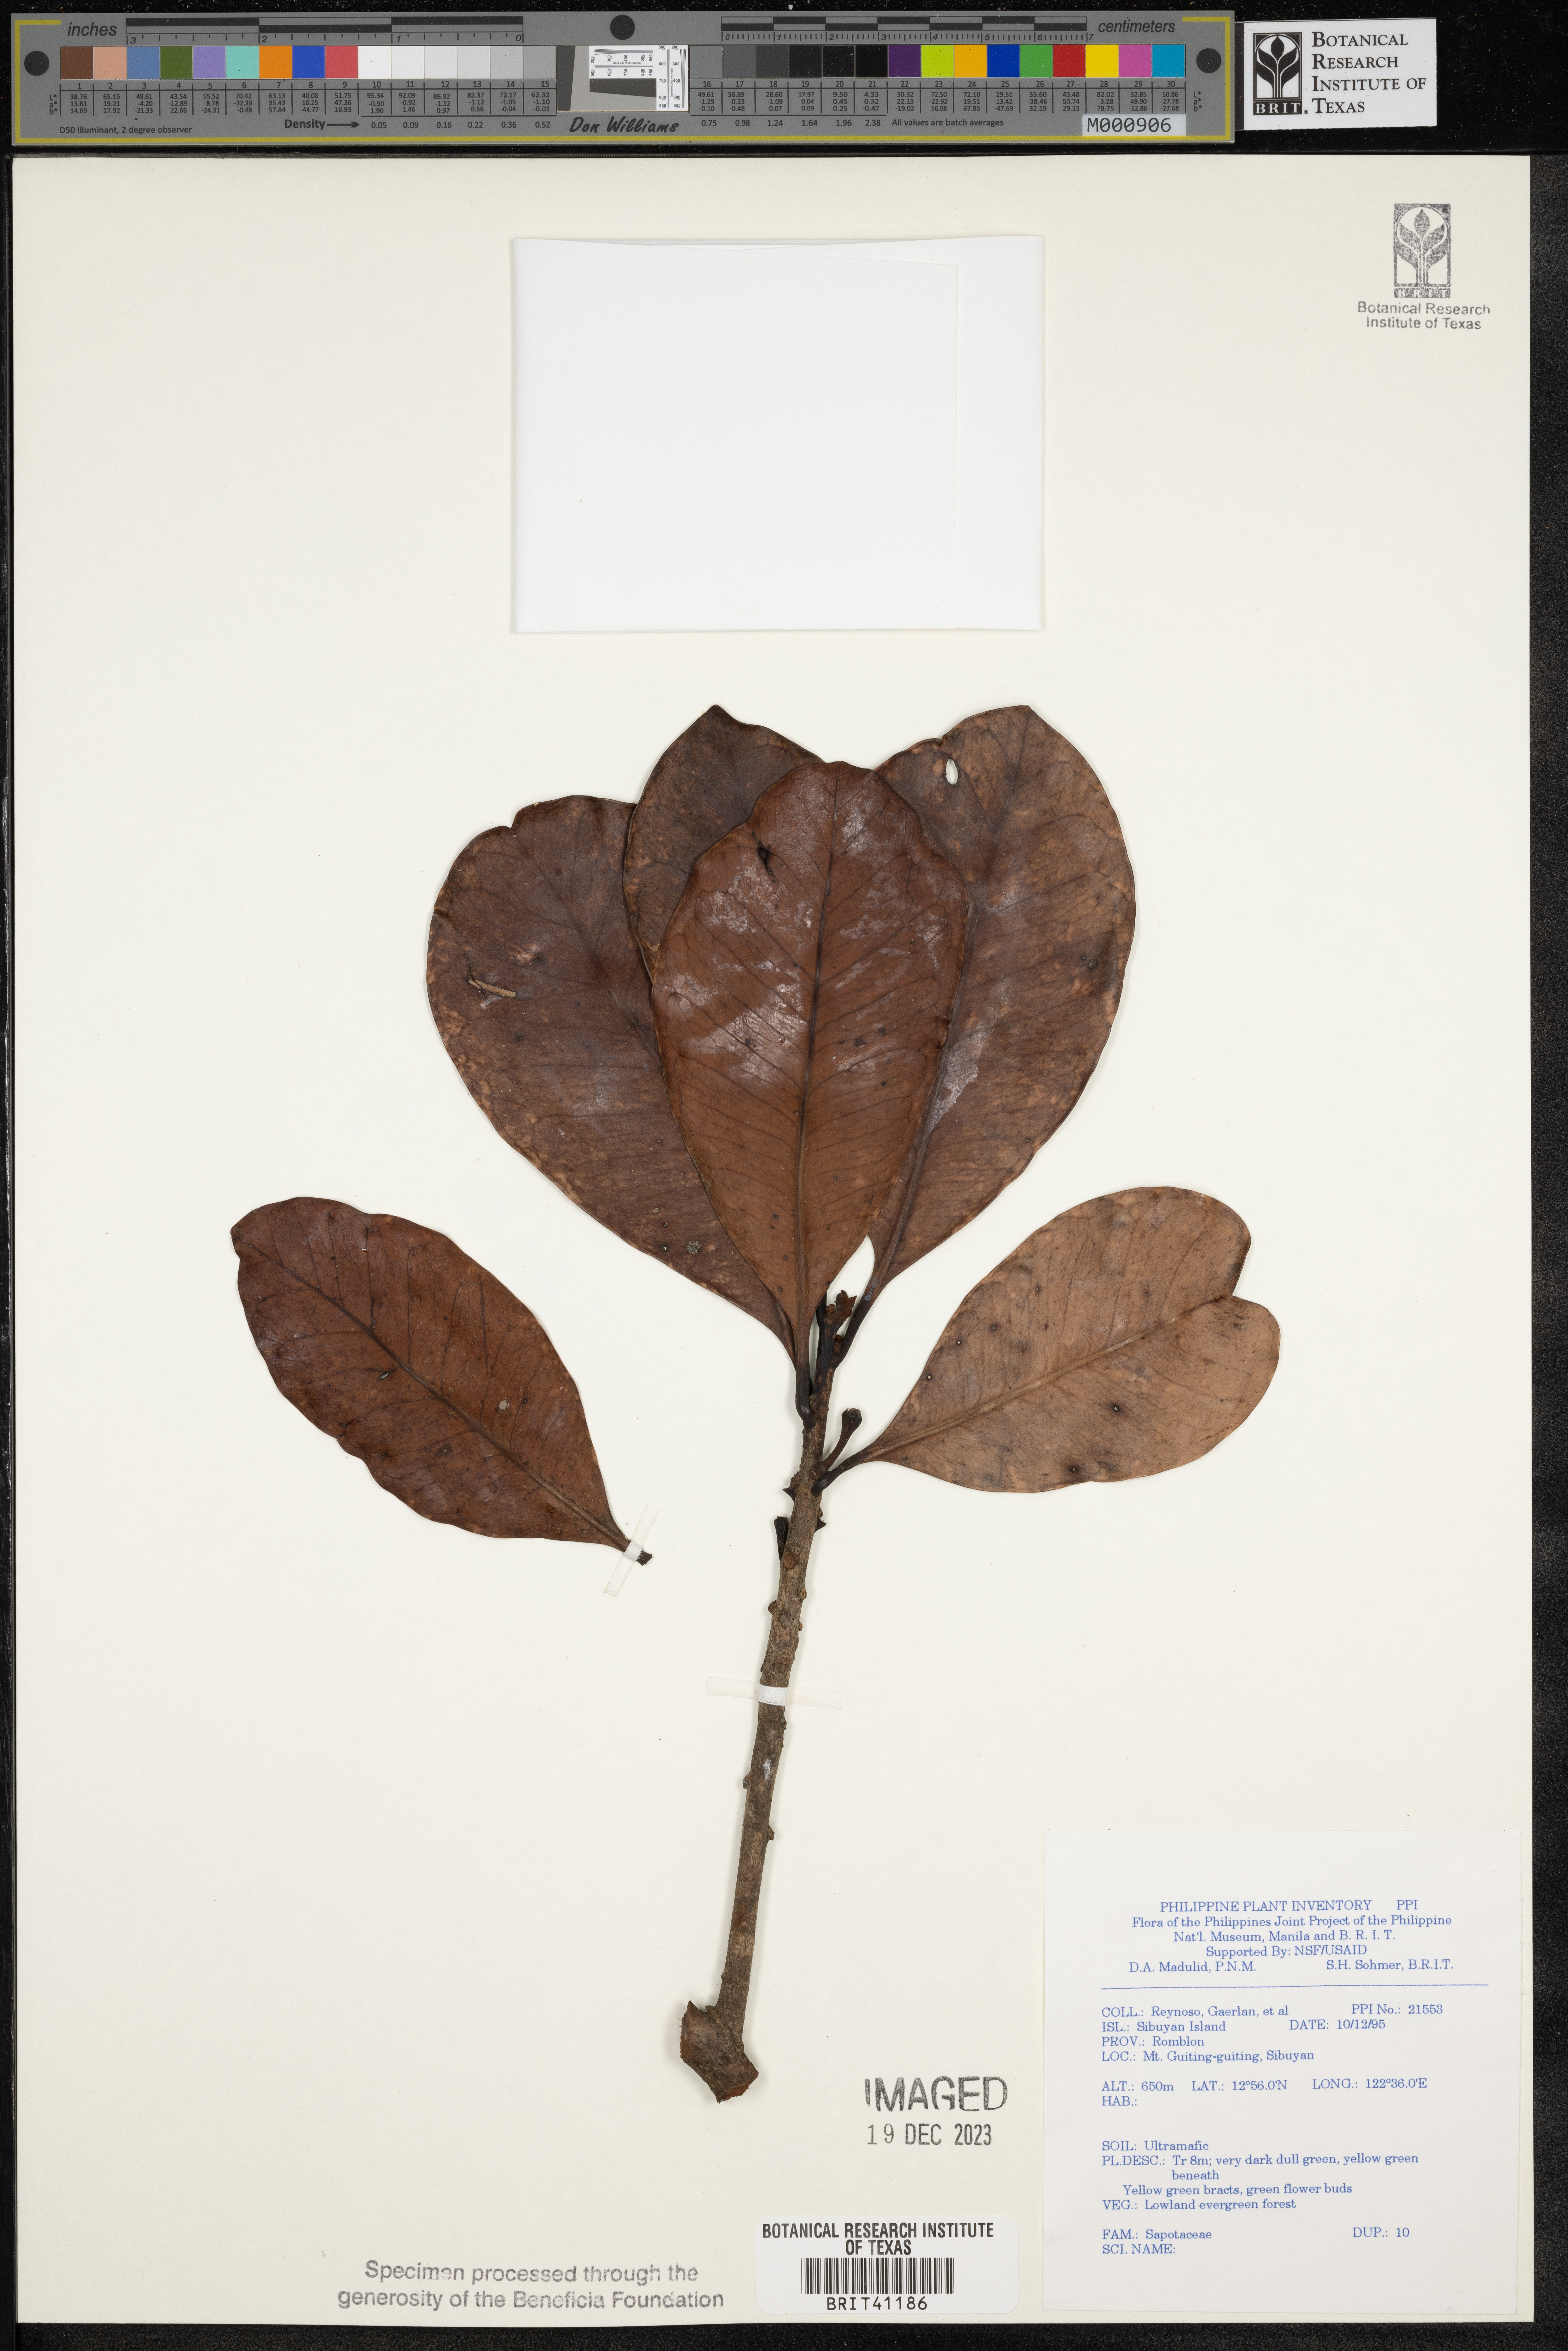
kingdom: Plantae
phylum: Tracheophyta
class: Magnoliopsida
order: Ericales
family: Sapotaceae
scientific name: Sapotaceae
